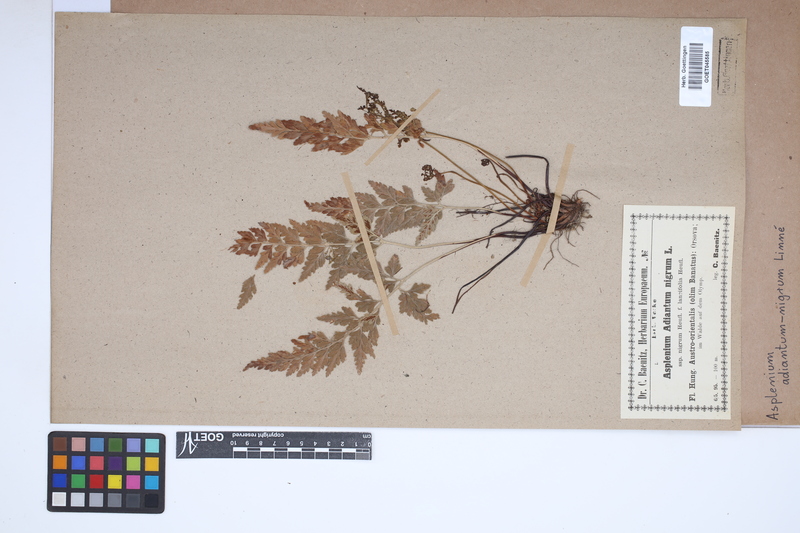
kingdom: Plantae
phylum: Tracheophyta
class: Polypodiopsida
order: Polypodiales
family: Aspleniaceae
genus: Asplenium
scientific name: Asplenium adiantum-nigrum
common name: Black spleenwort
